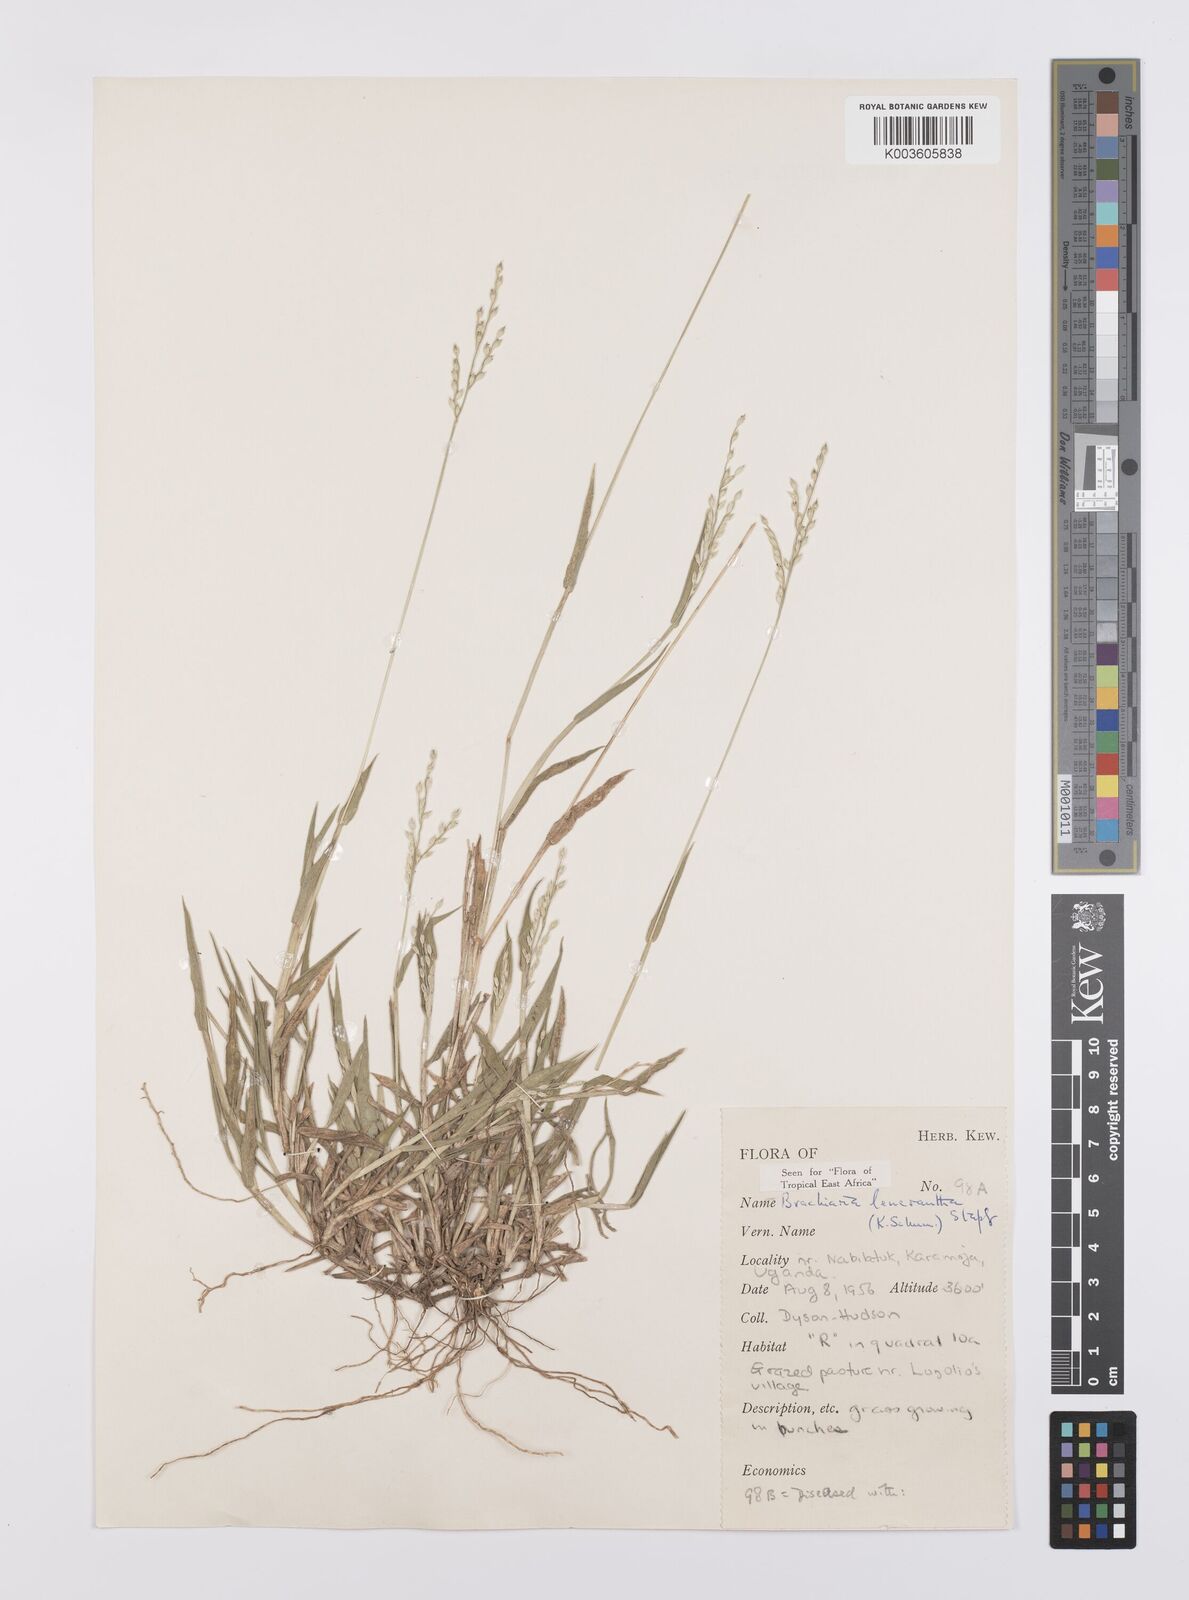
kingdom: Plantae
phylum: Tracheophyta
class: Liliopsida
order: Poales
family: Poaceae
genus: Urochloa
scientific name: Urochloa xantholeuca
